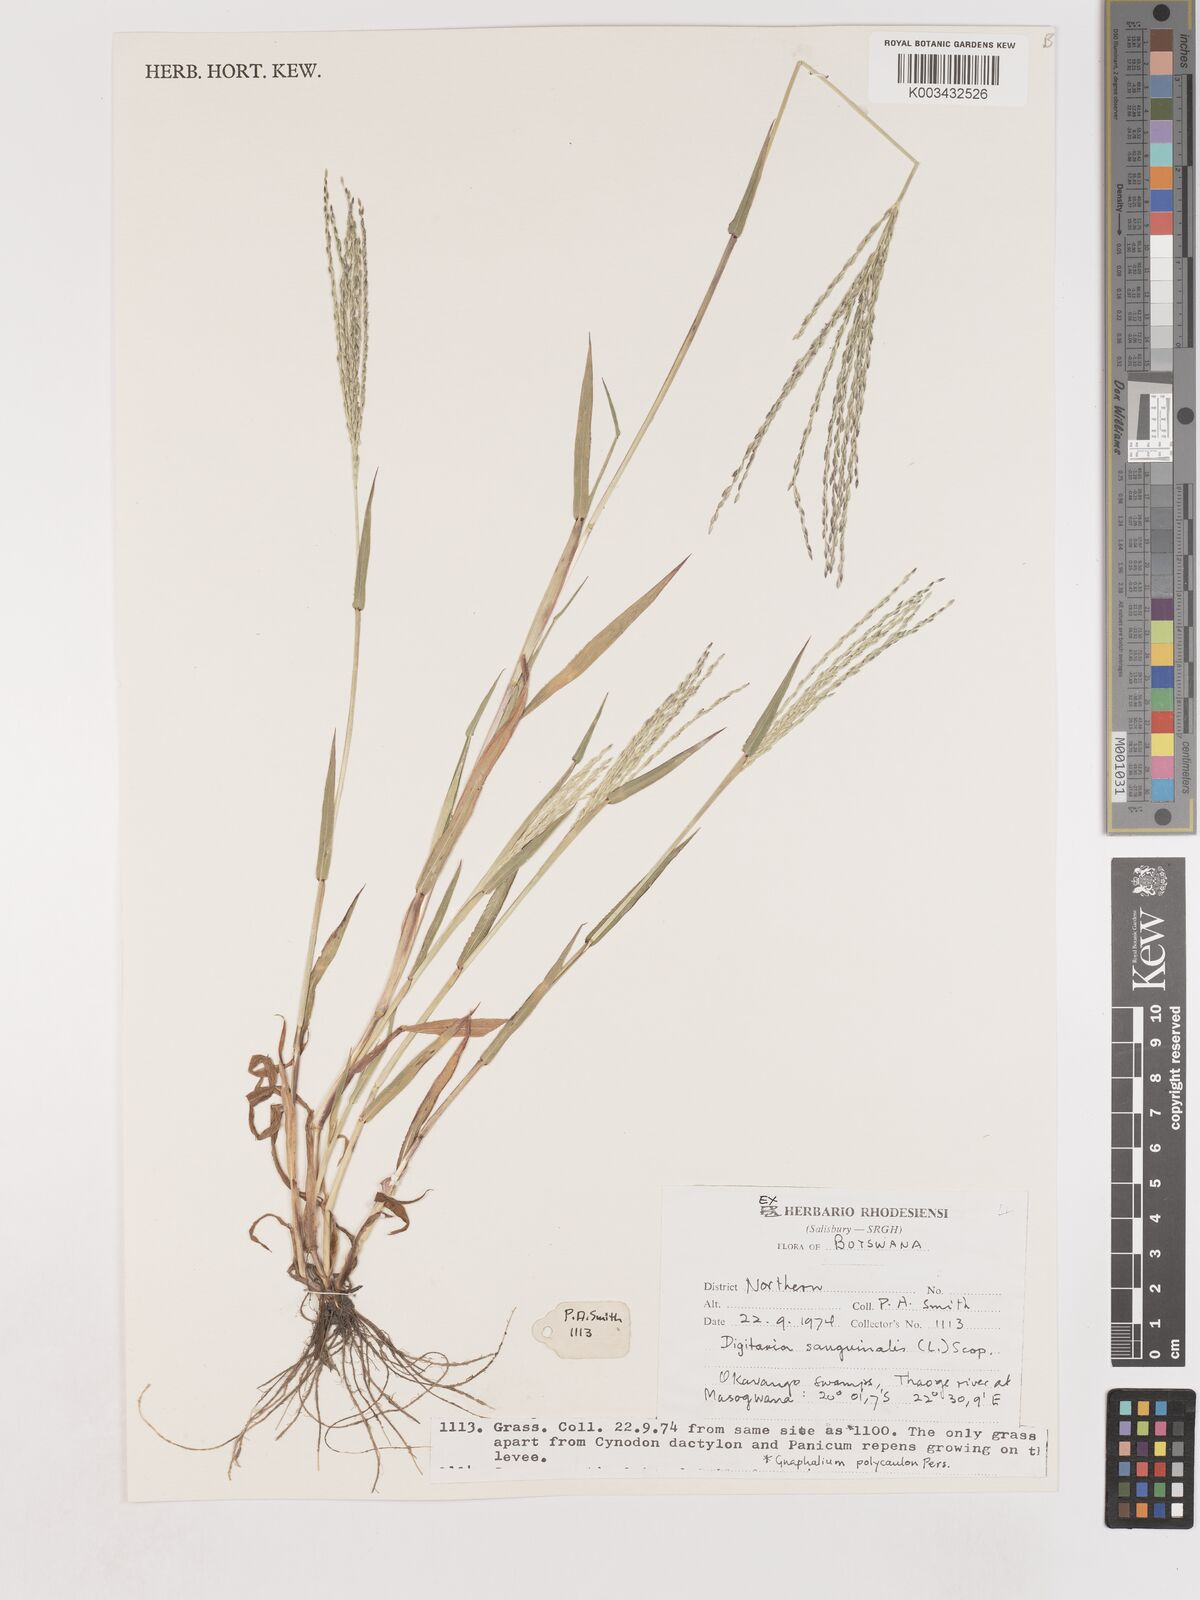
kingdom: Plantae
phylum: Tracheophyta
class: Liliopsida
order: Poales
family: Poaceae
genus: Digitaria
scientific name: Digitaria sanguinalis
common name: Hairy crabgrass
